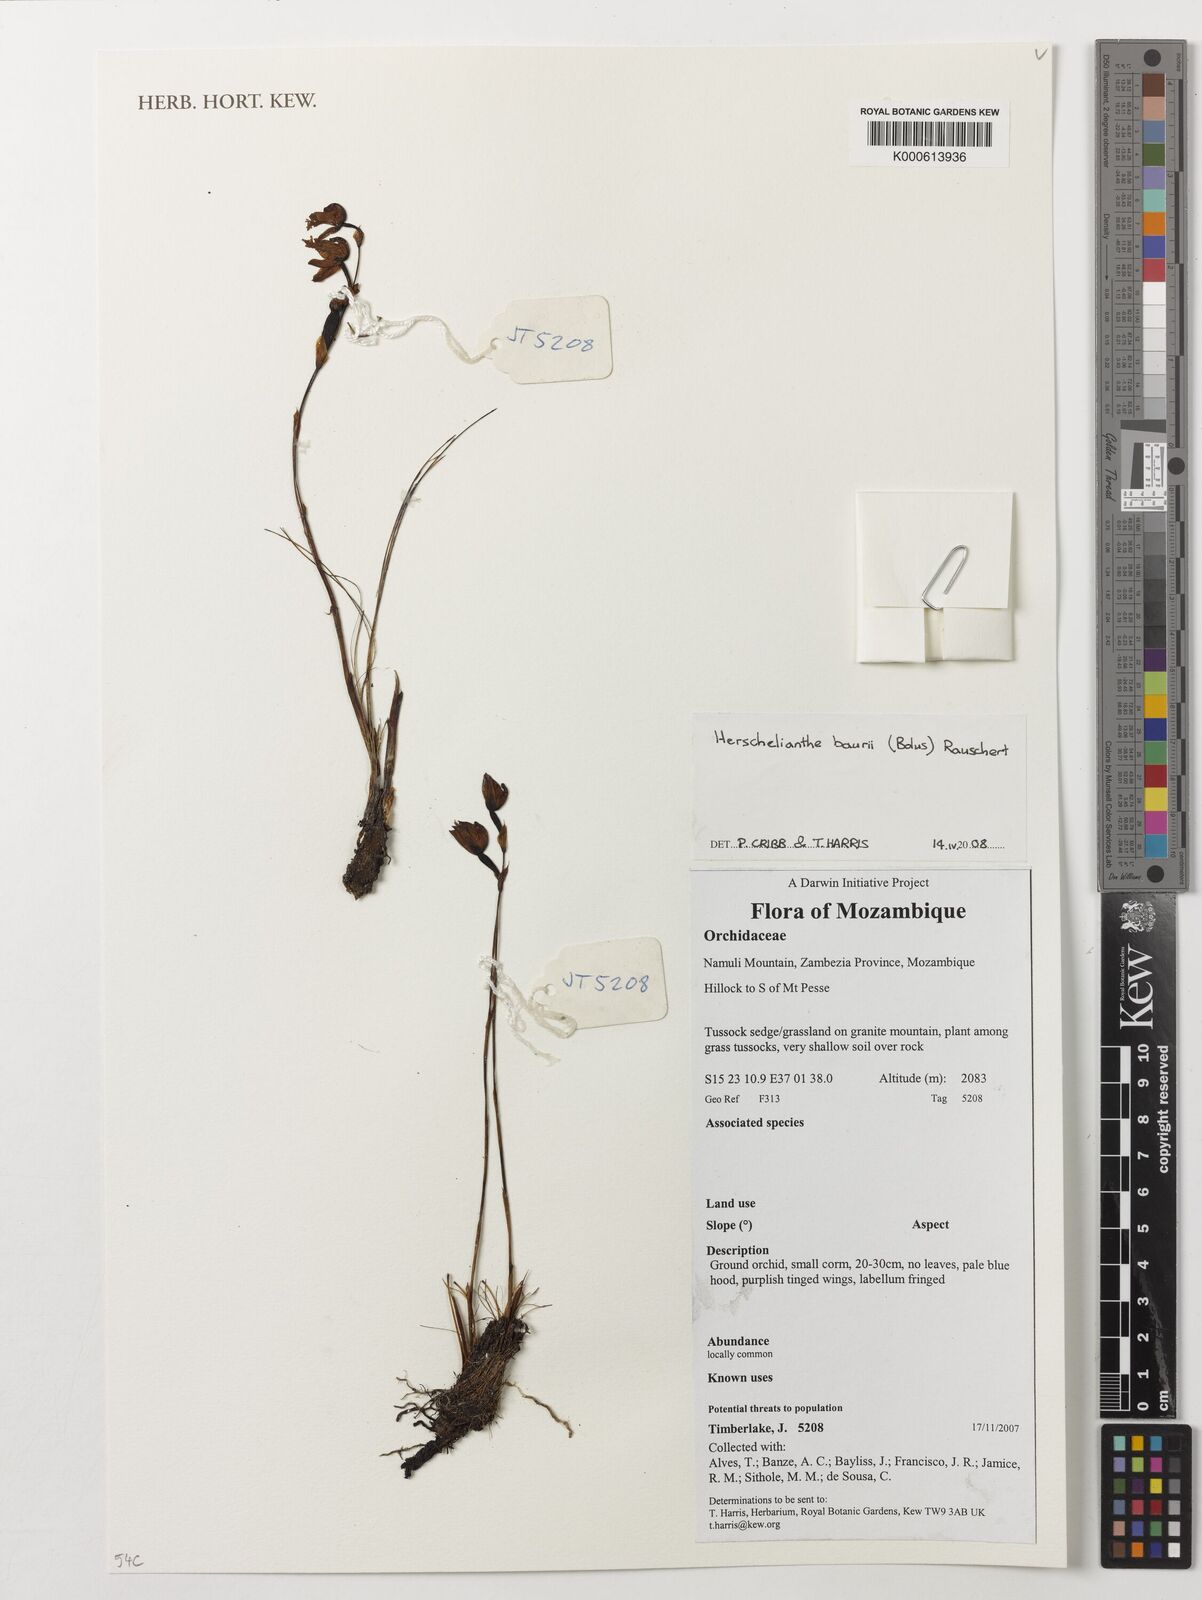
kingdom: Plantae
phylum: Tracheophyta
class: Liliopsida
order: Asparagales
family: Orchidaceae
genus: Disa
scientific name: Disa baurii
